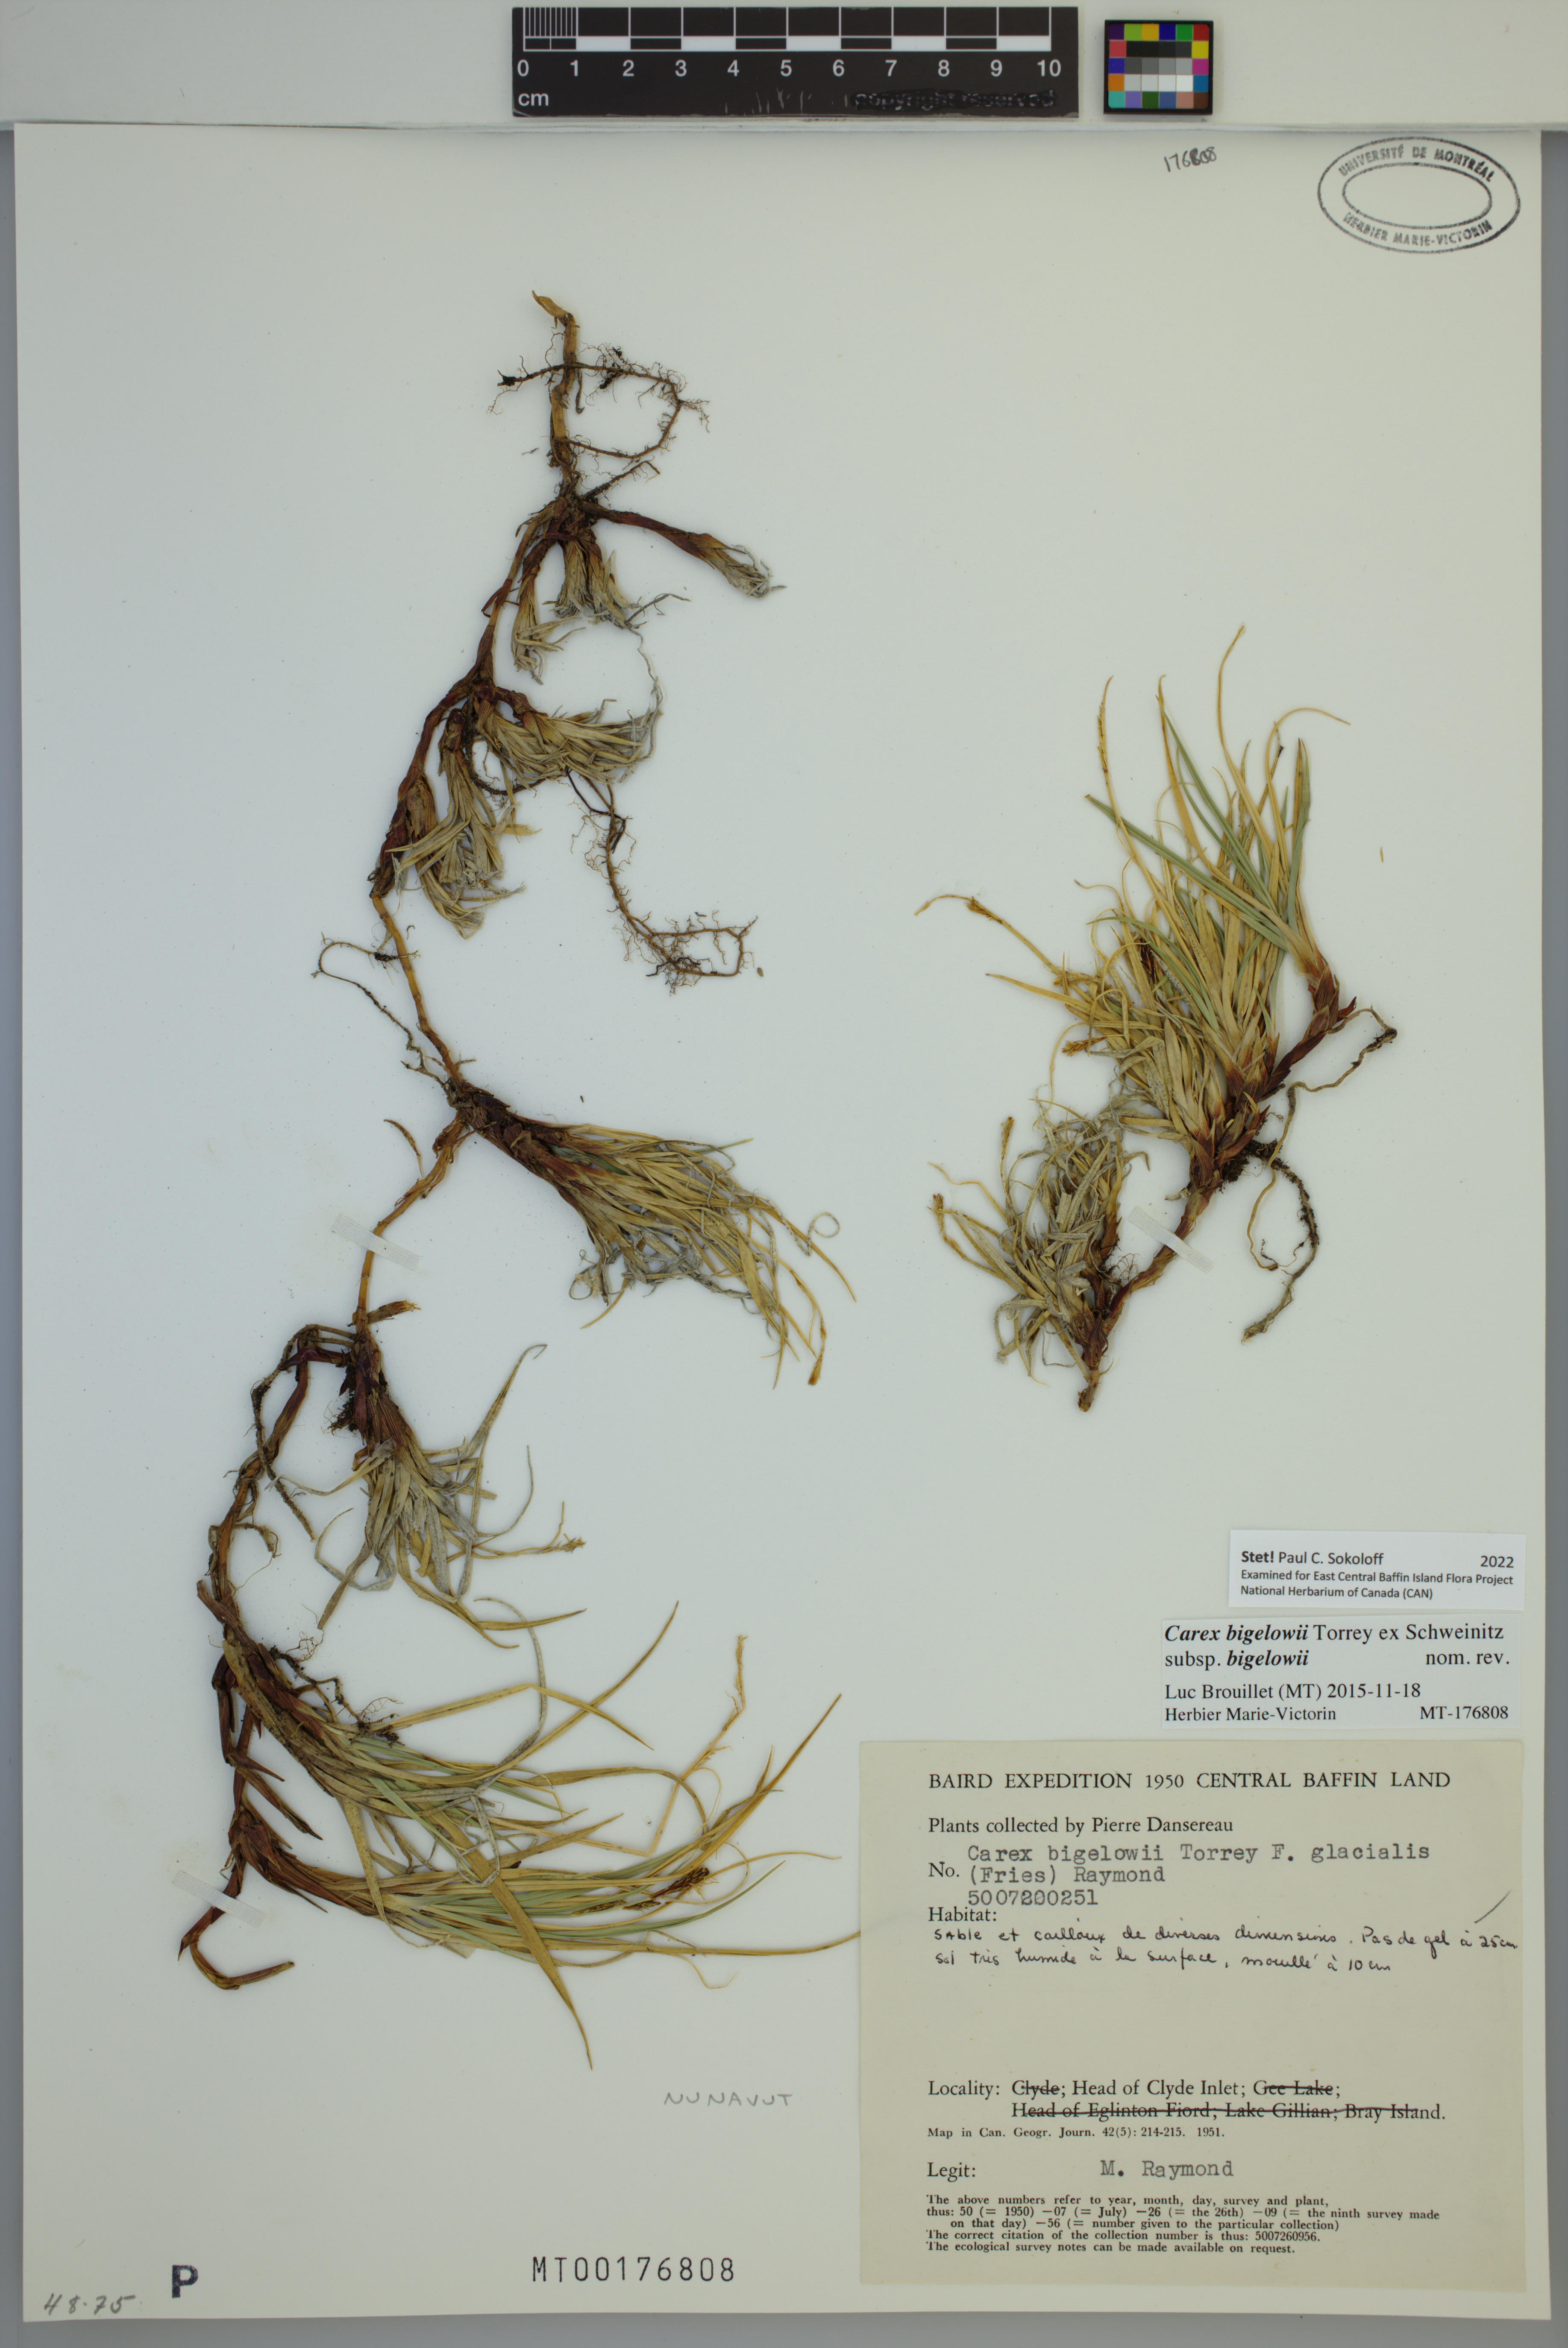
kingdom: Plantae
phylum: Tracheophyta
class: Liliopsida
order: Poales
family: Cyperaceae
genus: Carex
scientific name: Carex bigelowii
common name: Stiff sedge
